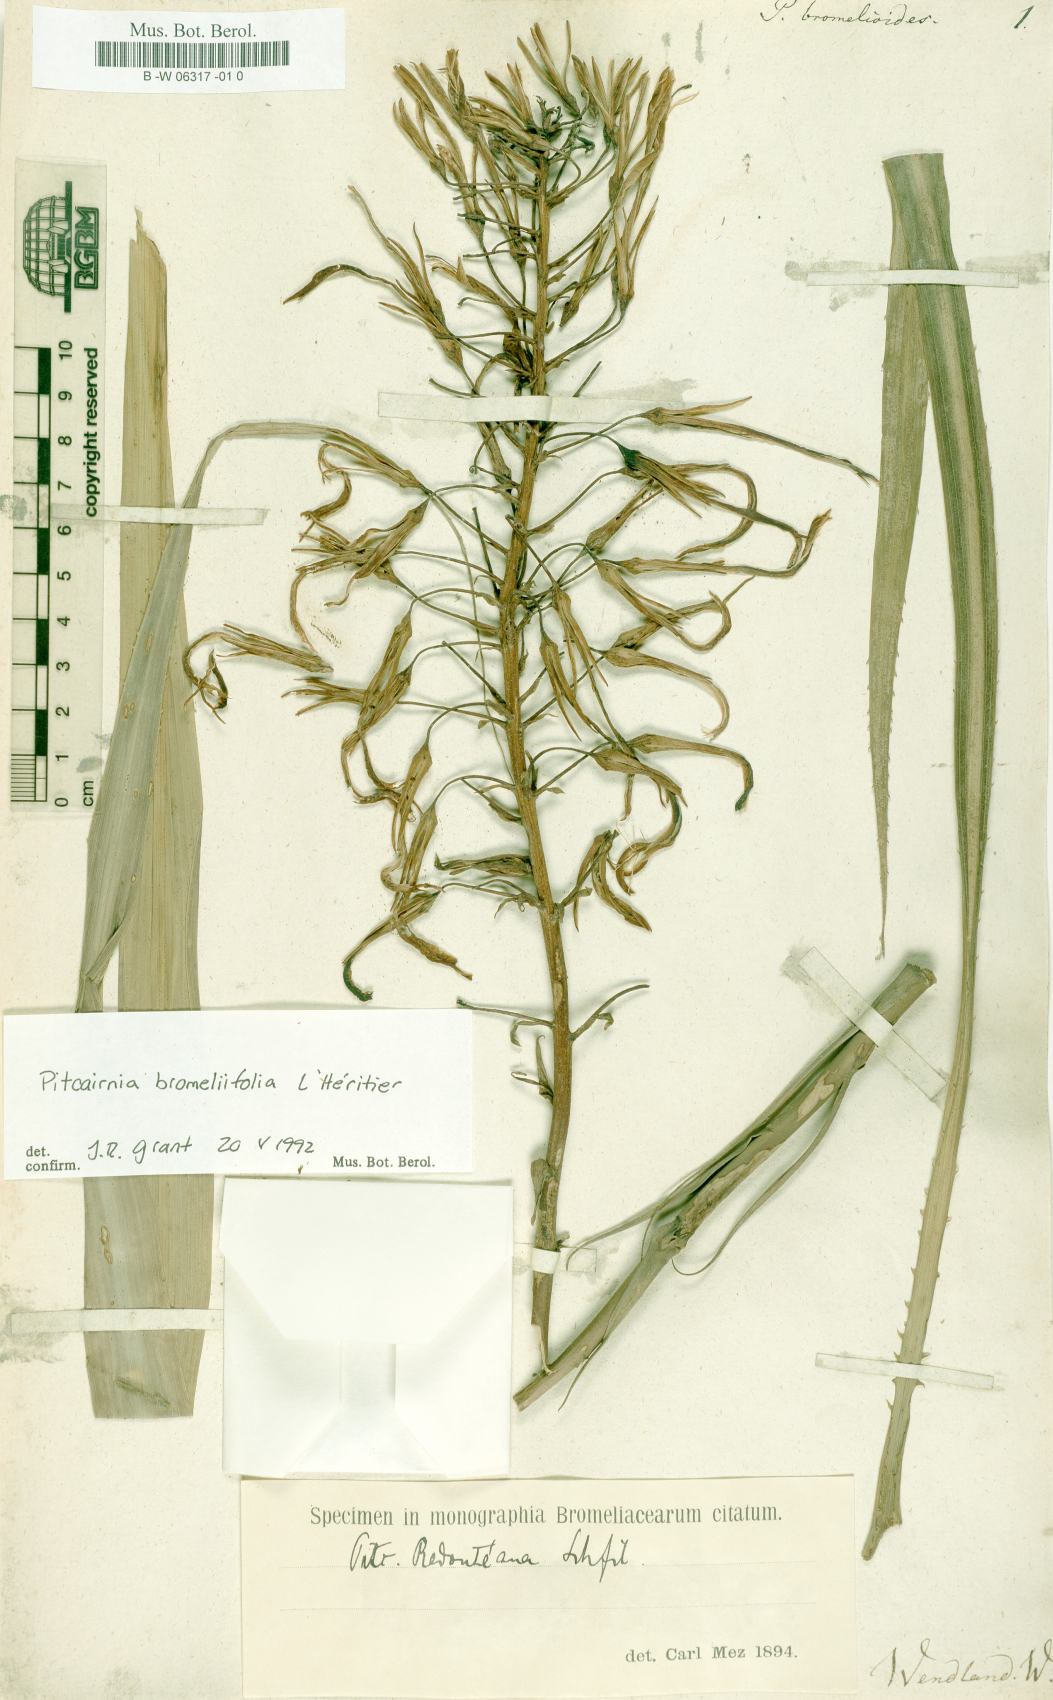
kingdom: Plantae
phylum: Tracheophyta
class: Liliopsida
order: Poales
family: Bromeliaceae
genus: Pitcairnia
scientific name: Pitcairnia bromeliifolia
